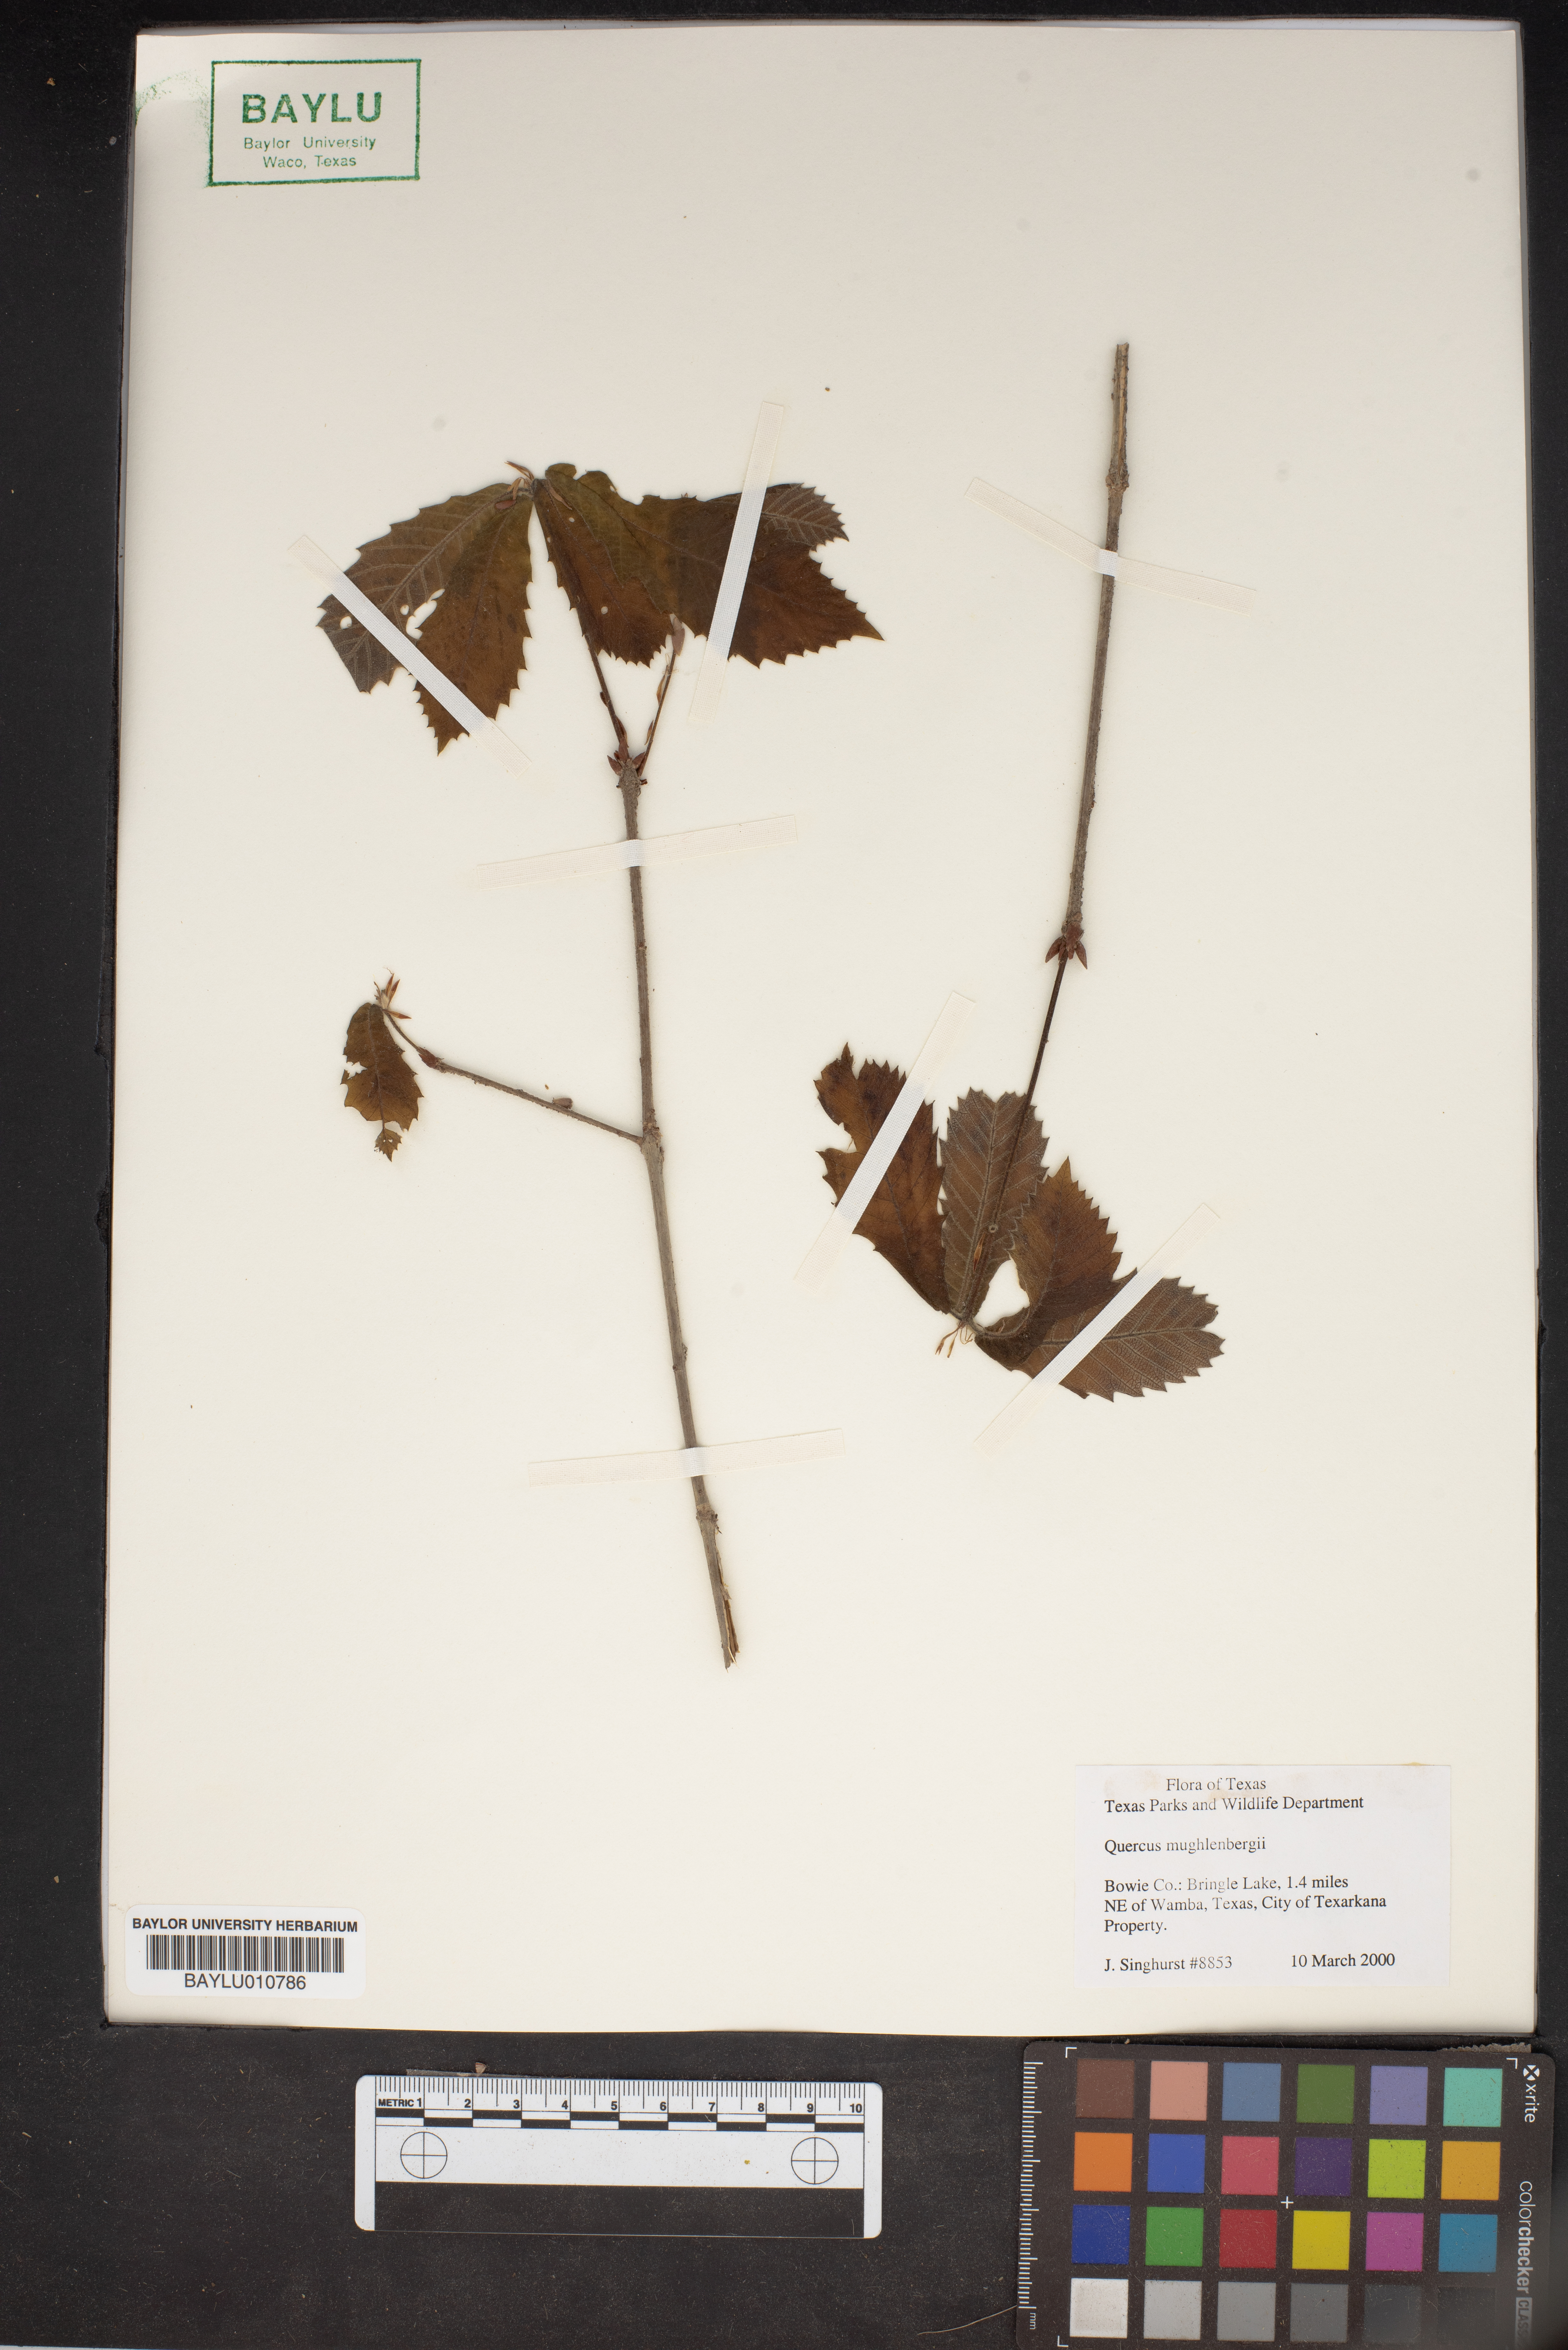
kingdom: Plantae
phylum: Tracheophyta
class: Magnoliopsida
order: Fagales
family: Fagaceae
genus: Quercus
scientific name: Quercus muehlenbergii
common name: Chinkapin oak
